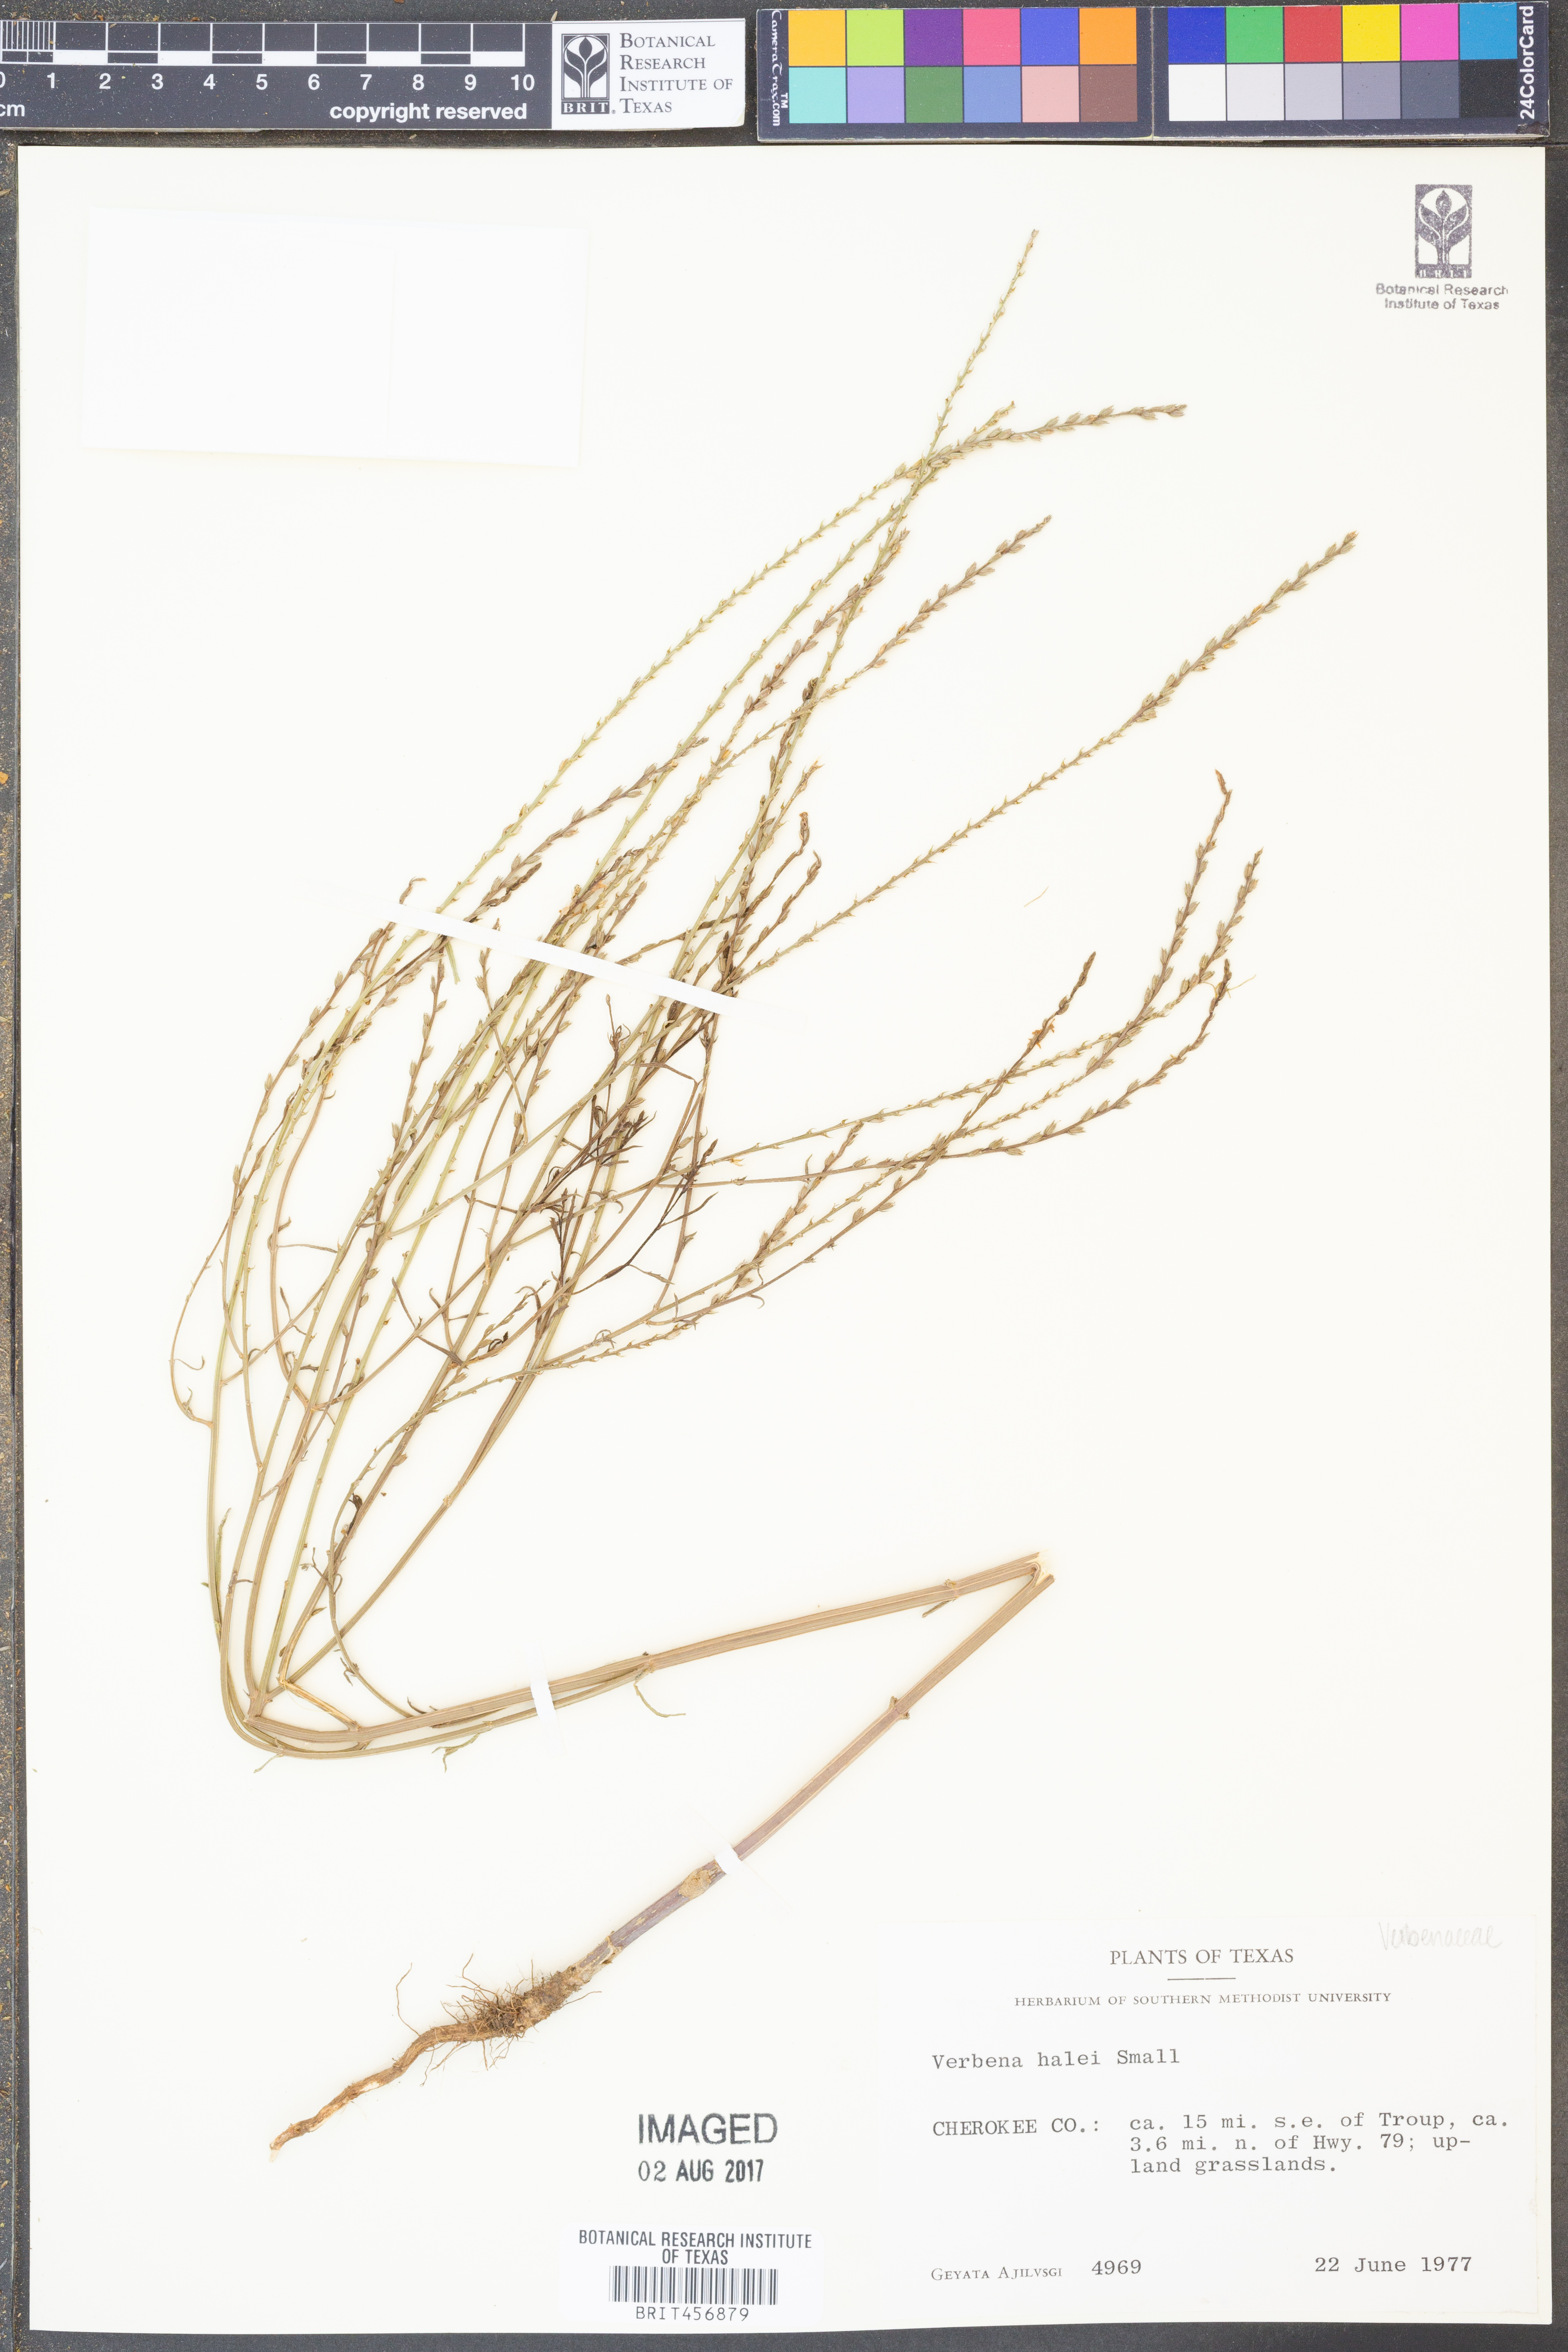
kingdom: Plantae
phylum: Tracheophyta
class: Magnoliopsida
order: Lamiales
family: Verbenaceae
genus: Verbena
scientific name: Verbena halei
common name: Texas vervain
